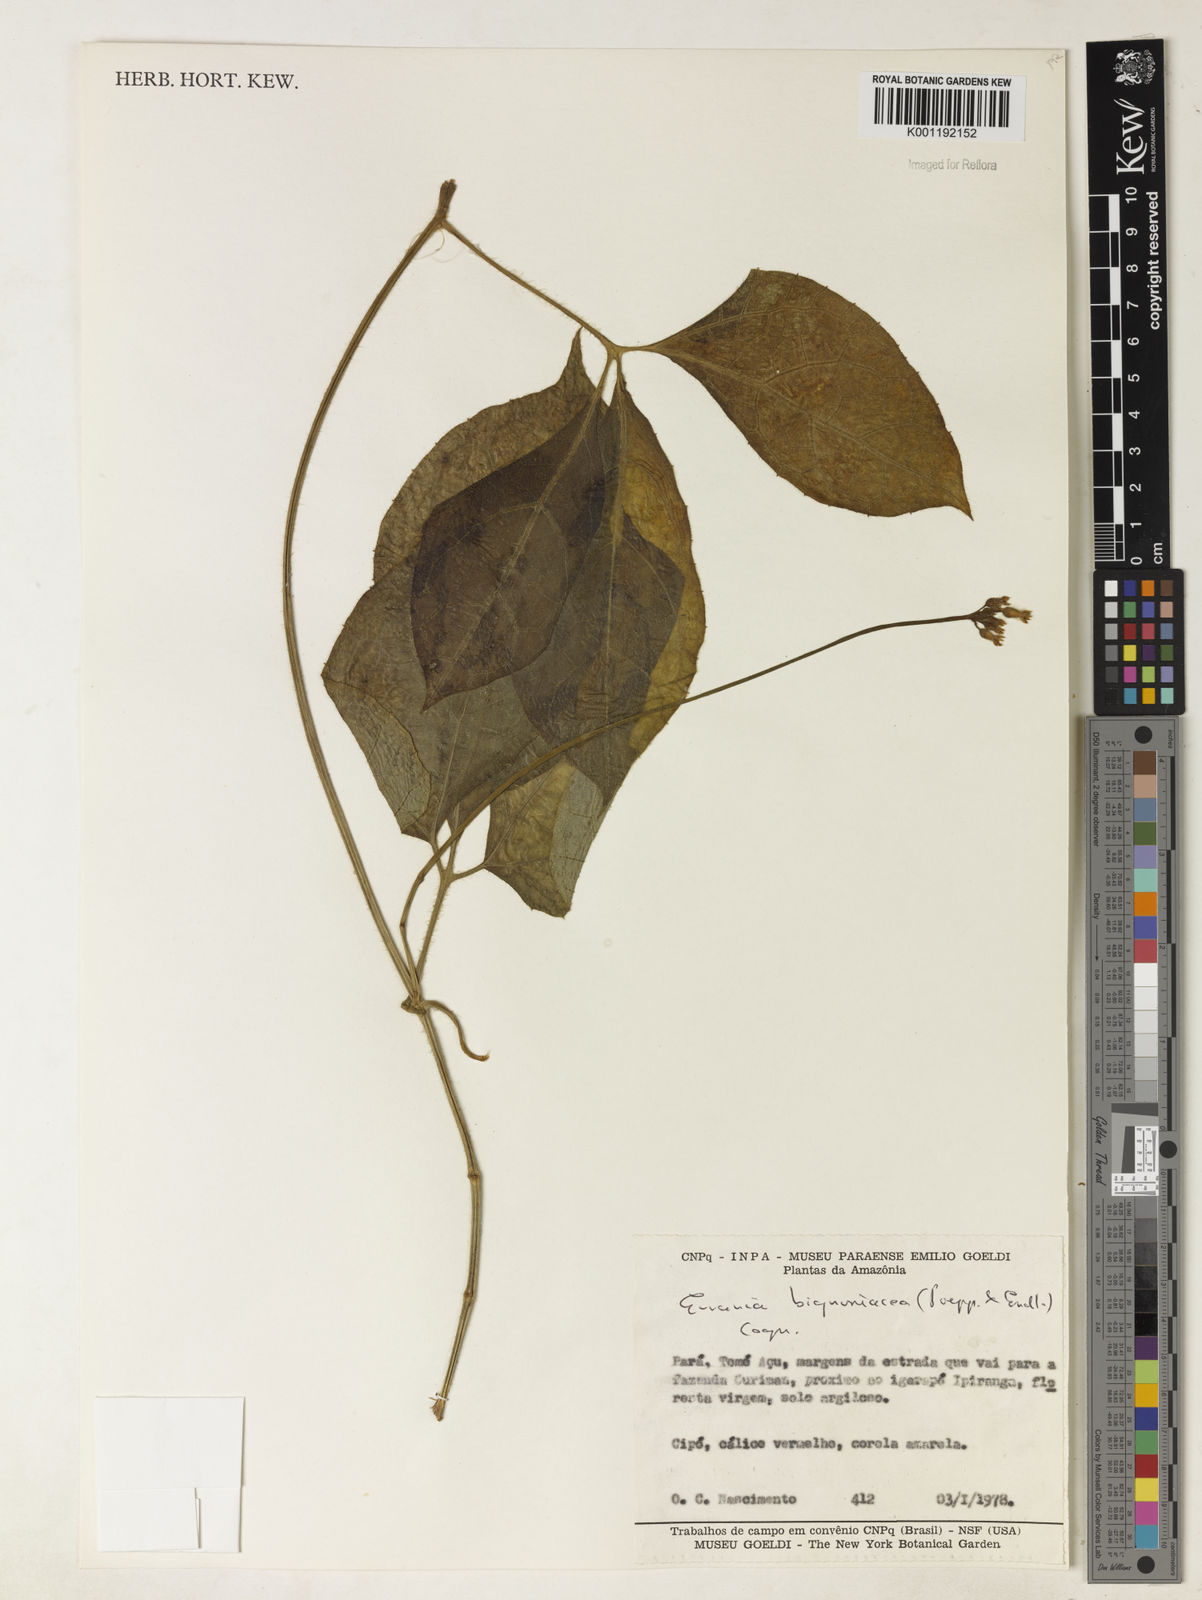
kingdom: Plantae
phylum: Tracheophyta
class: Magnoliopsida
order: Cucurbitales
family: Cucurbitaceae
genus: Gurania
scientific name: Gurania bignoniacea
